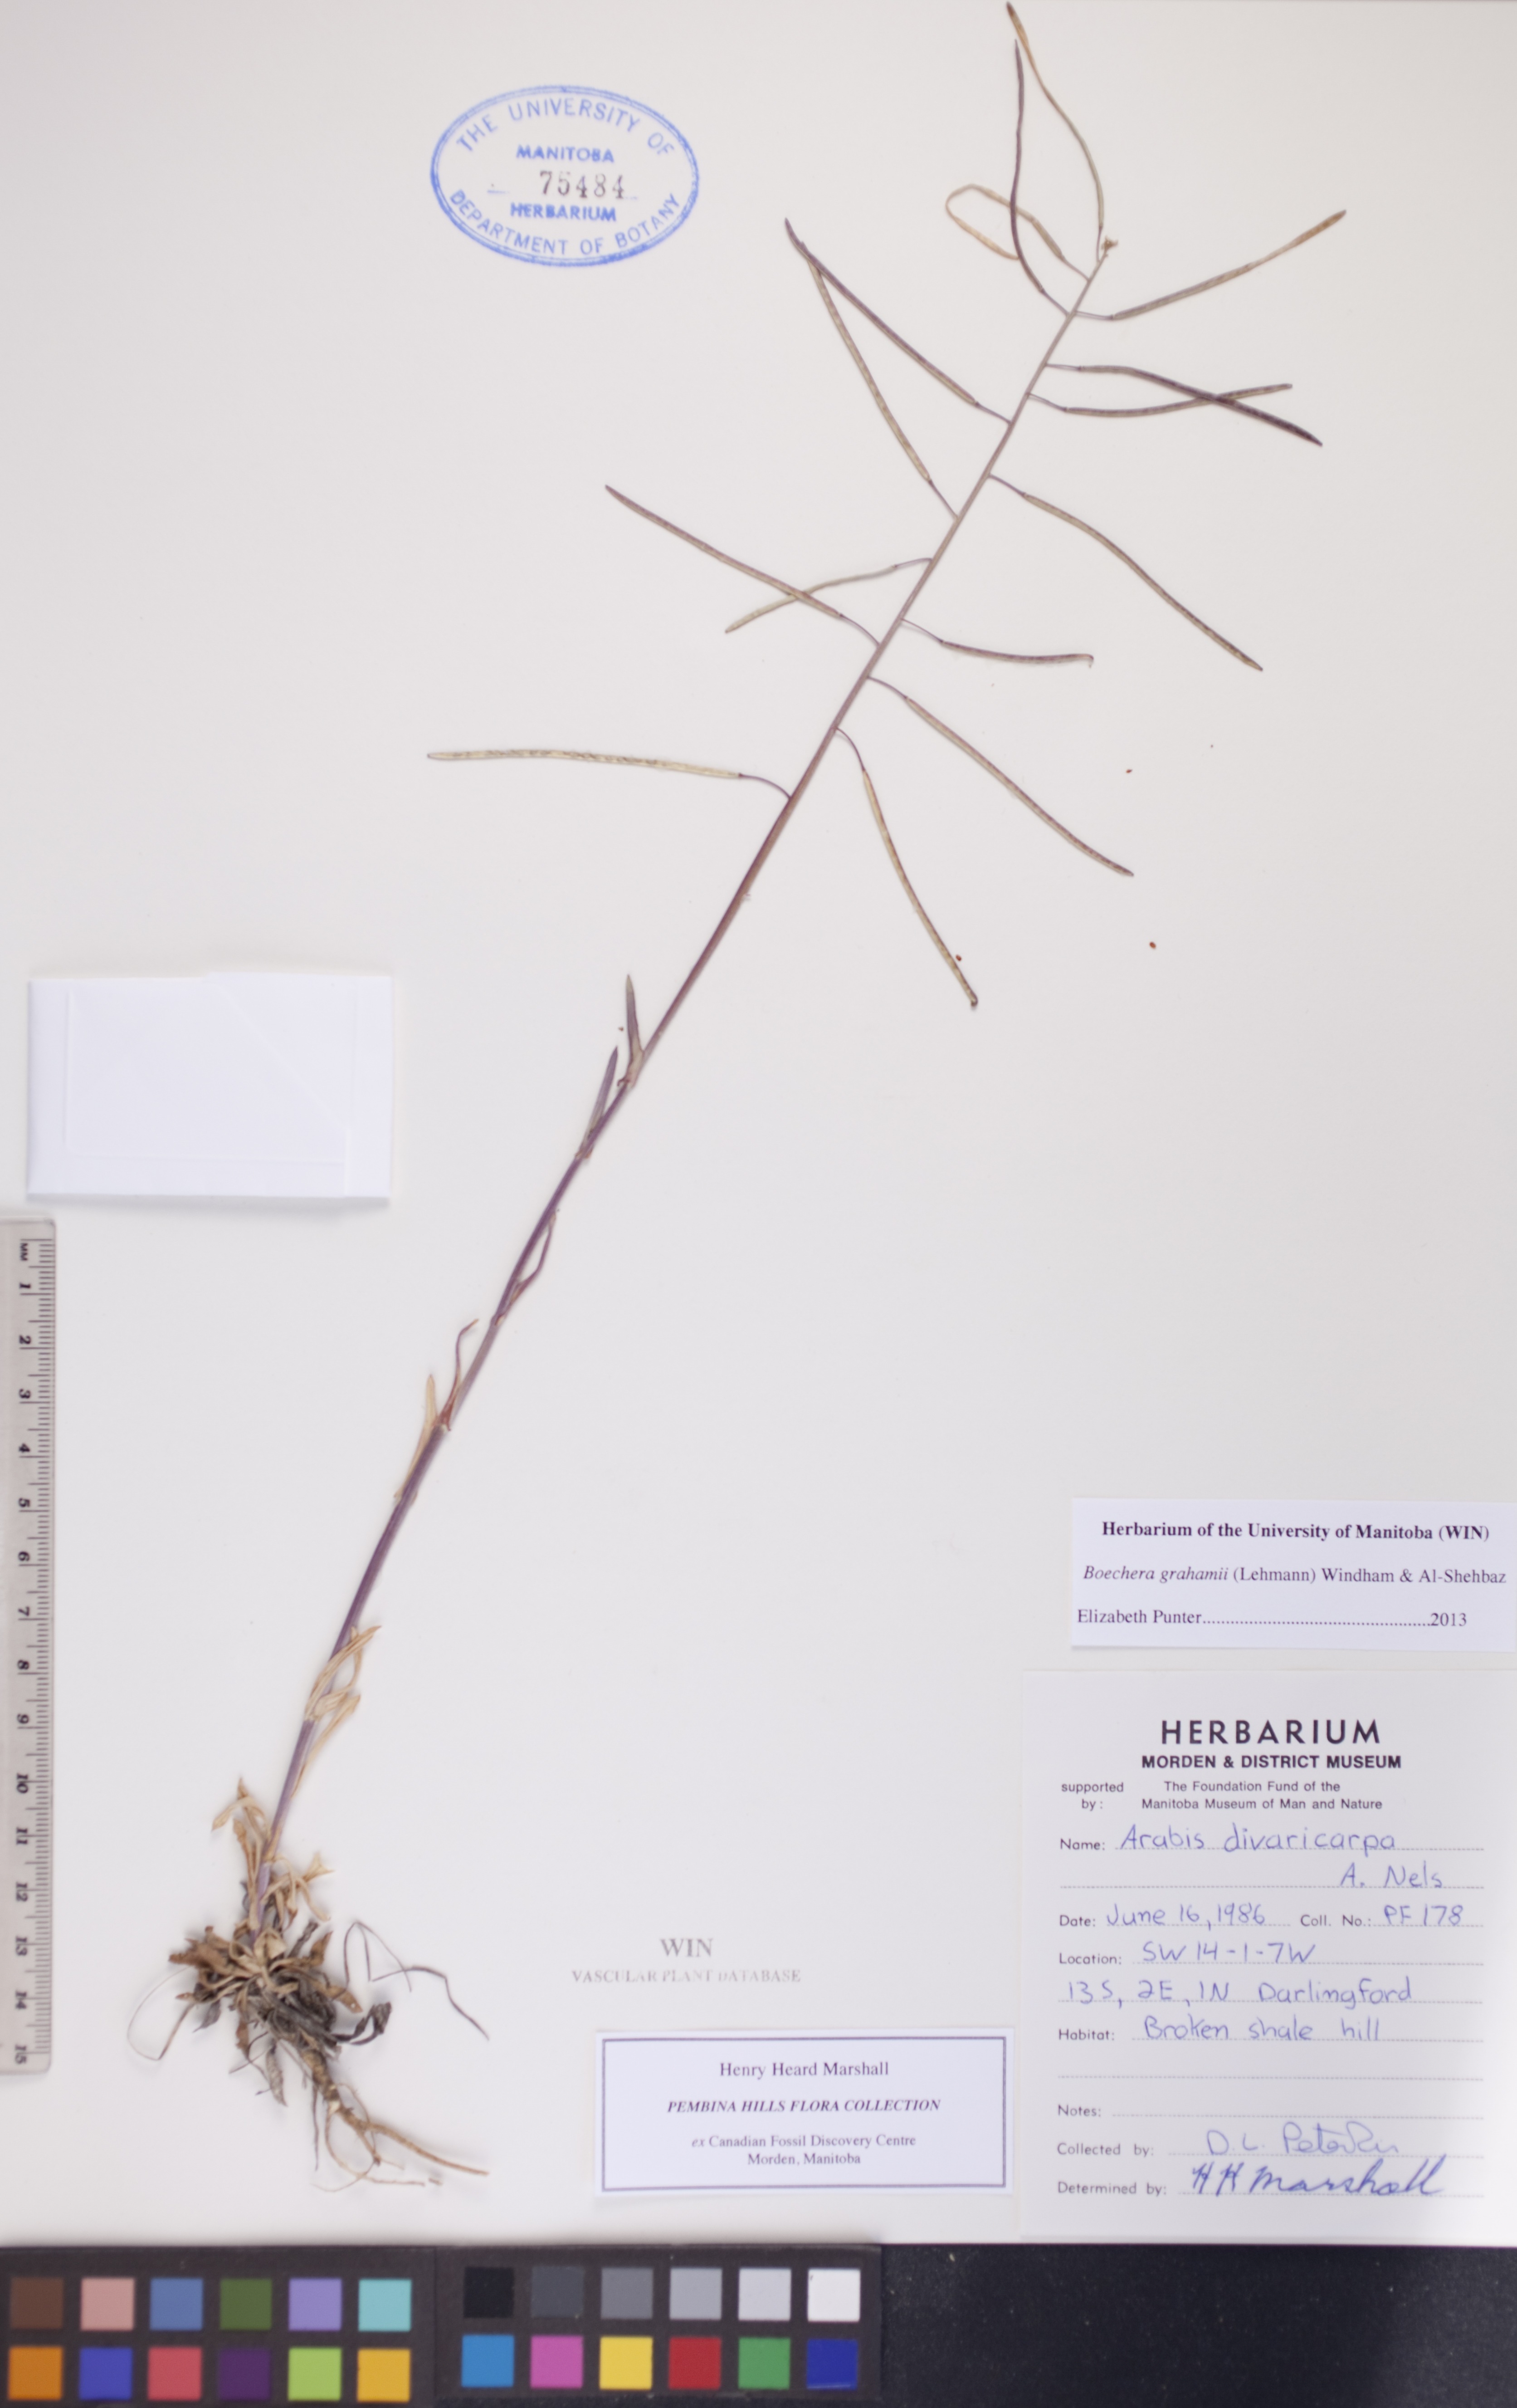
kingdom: Plantae
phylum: Tracheophyta
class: Magnoliopsida
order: Brassicales
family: Brassicaceae
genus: Boechera
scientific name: Boechera grahamii
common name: Graham's rockcress
